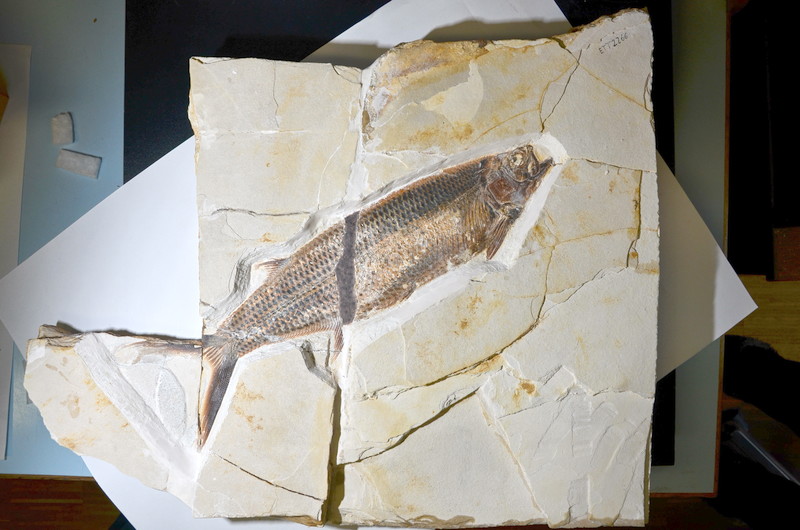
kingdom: Animalia
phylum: Chordata
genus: Thrissops
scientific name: Thrissops formosus
